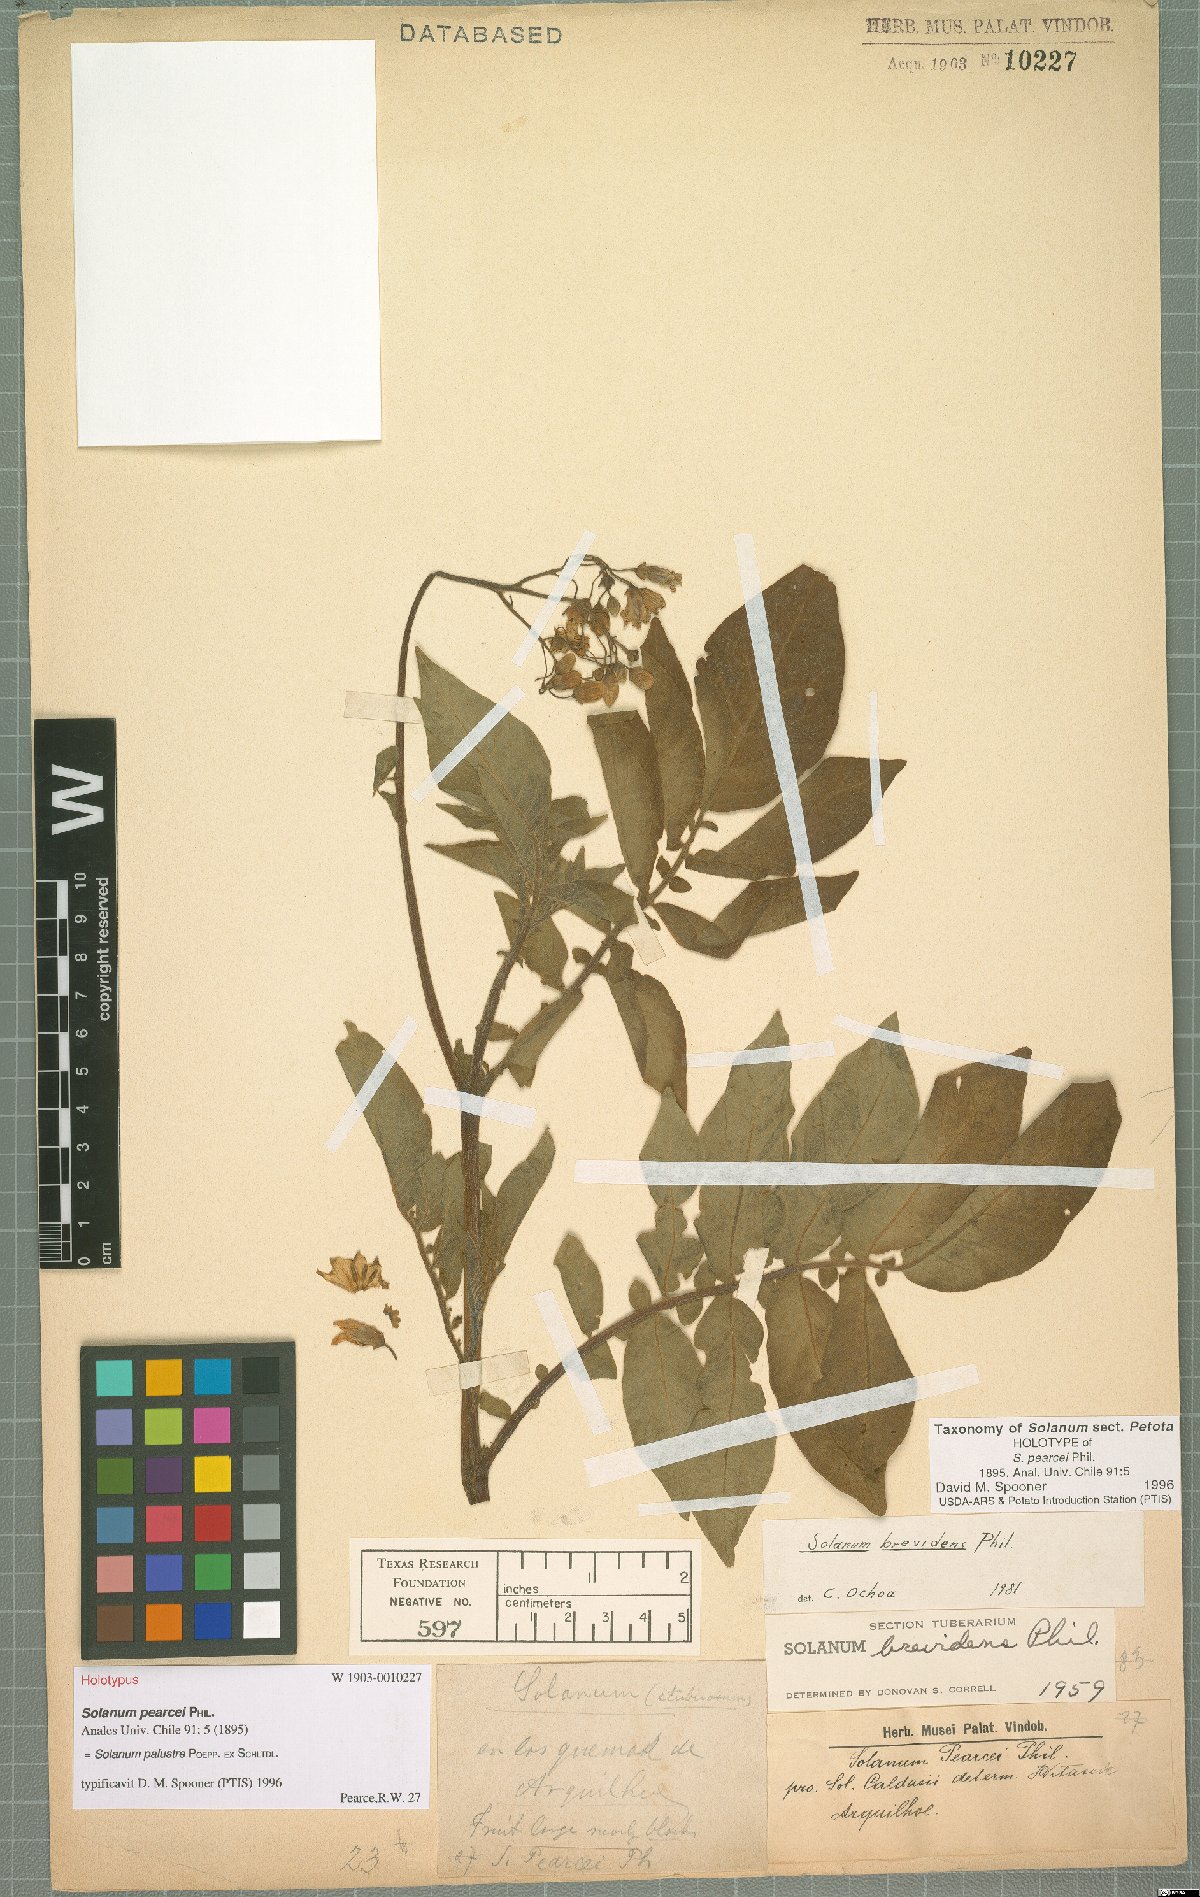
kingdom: Plantae
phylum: Tracheophyta
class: Magnoliopsida
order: Solanales
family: Solanaceae
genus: Solanum
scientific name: Solanum palustre
